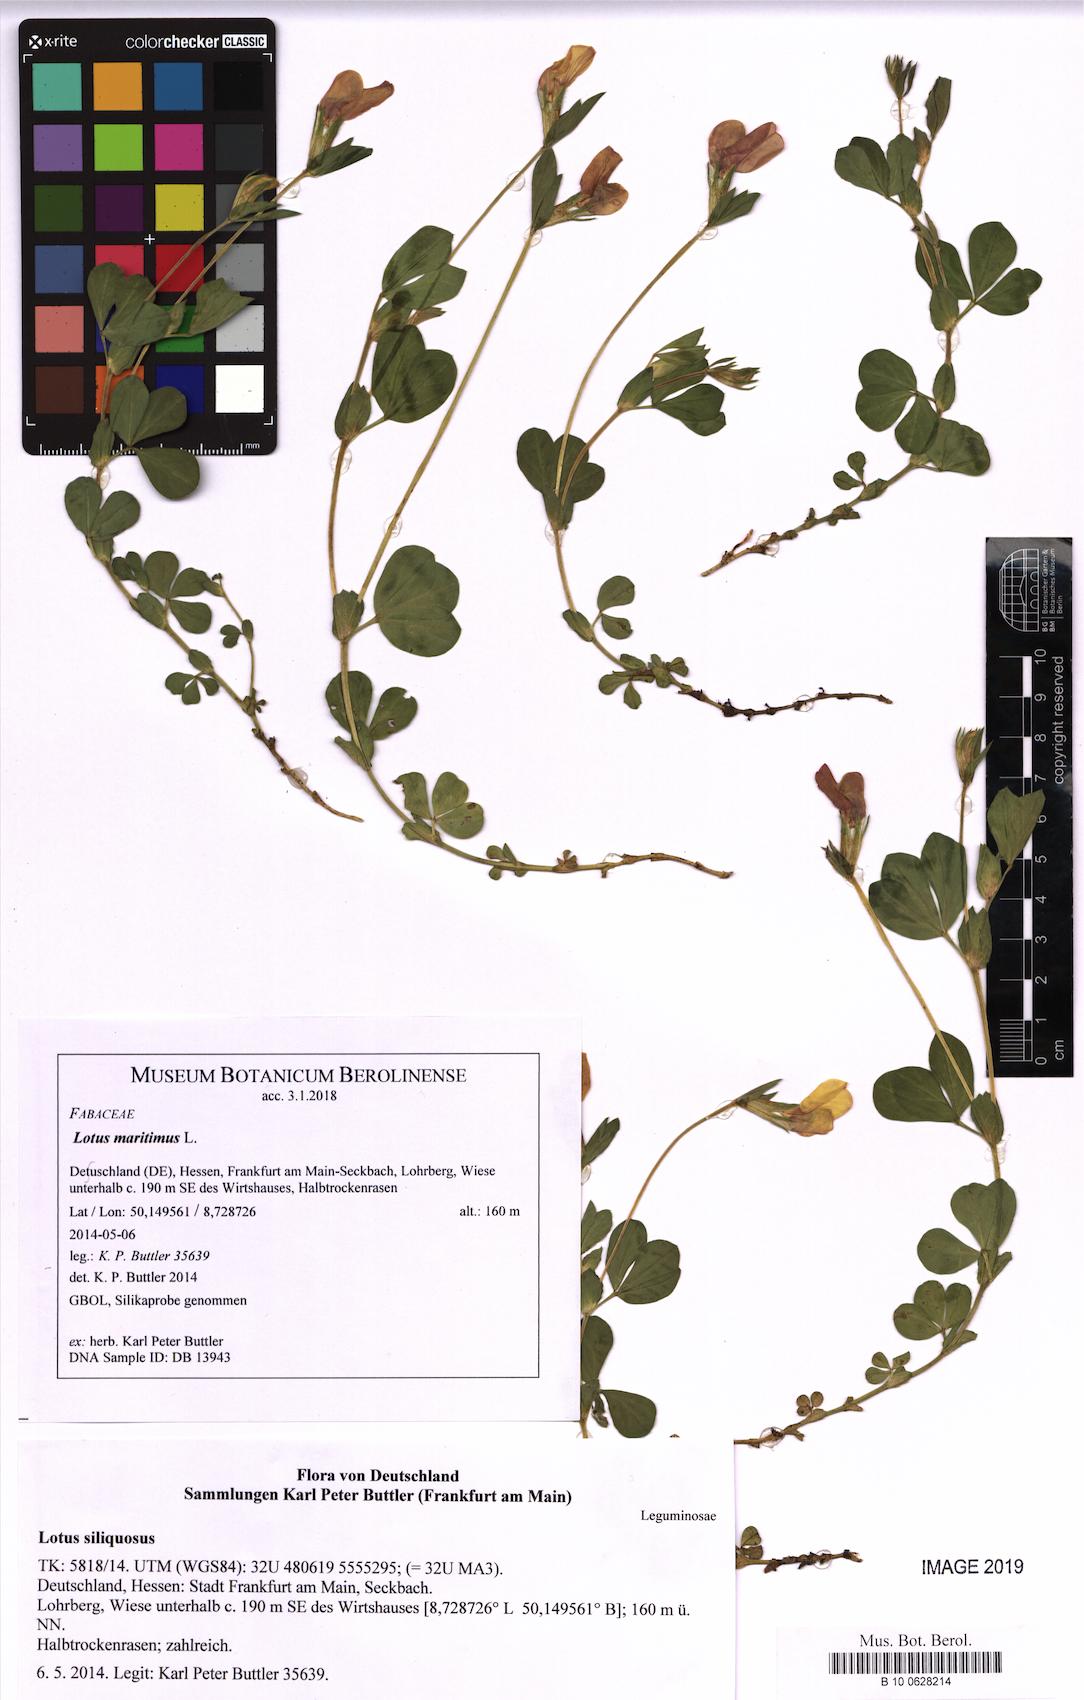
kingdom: Plantae
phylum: Tracheophyta
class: Magnoliopsida
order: Fabales
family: Fabaceae
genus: Lotus
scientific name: Lotus maritimus
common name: Dragon's-teeth
